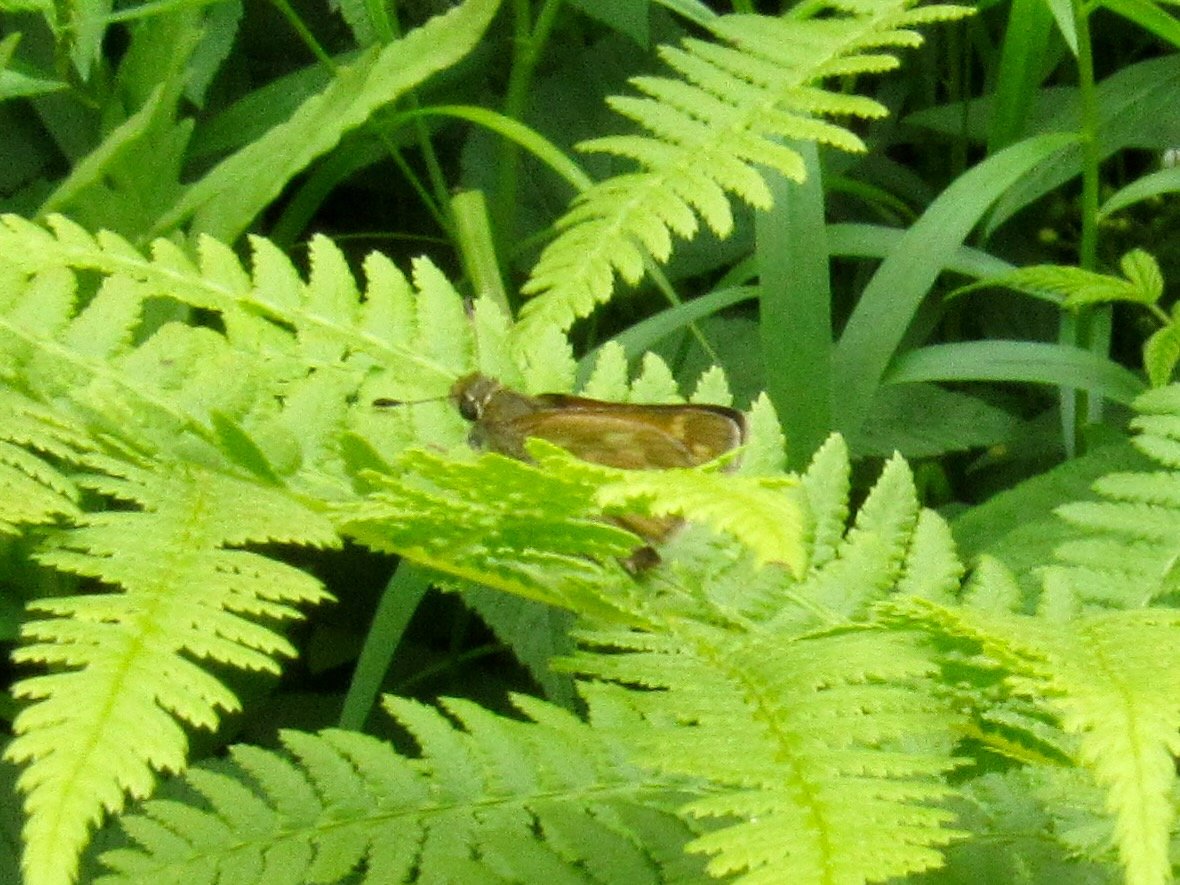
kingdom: Animalia
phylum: Arthropoda
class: Insecta
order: Lepidoptera
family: Hesperiidae
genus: Hesperia
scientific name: Hesperia sassacus
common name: Sassacus Skipper
